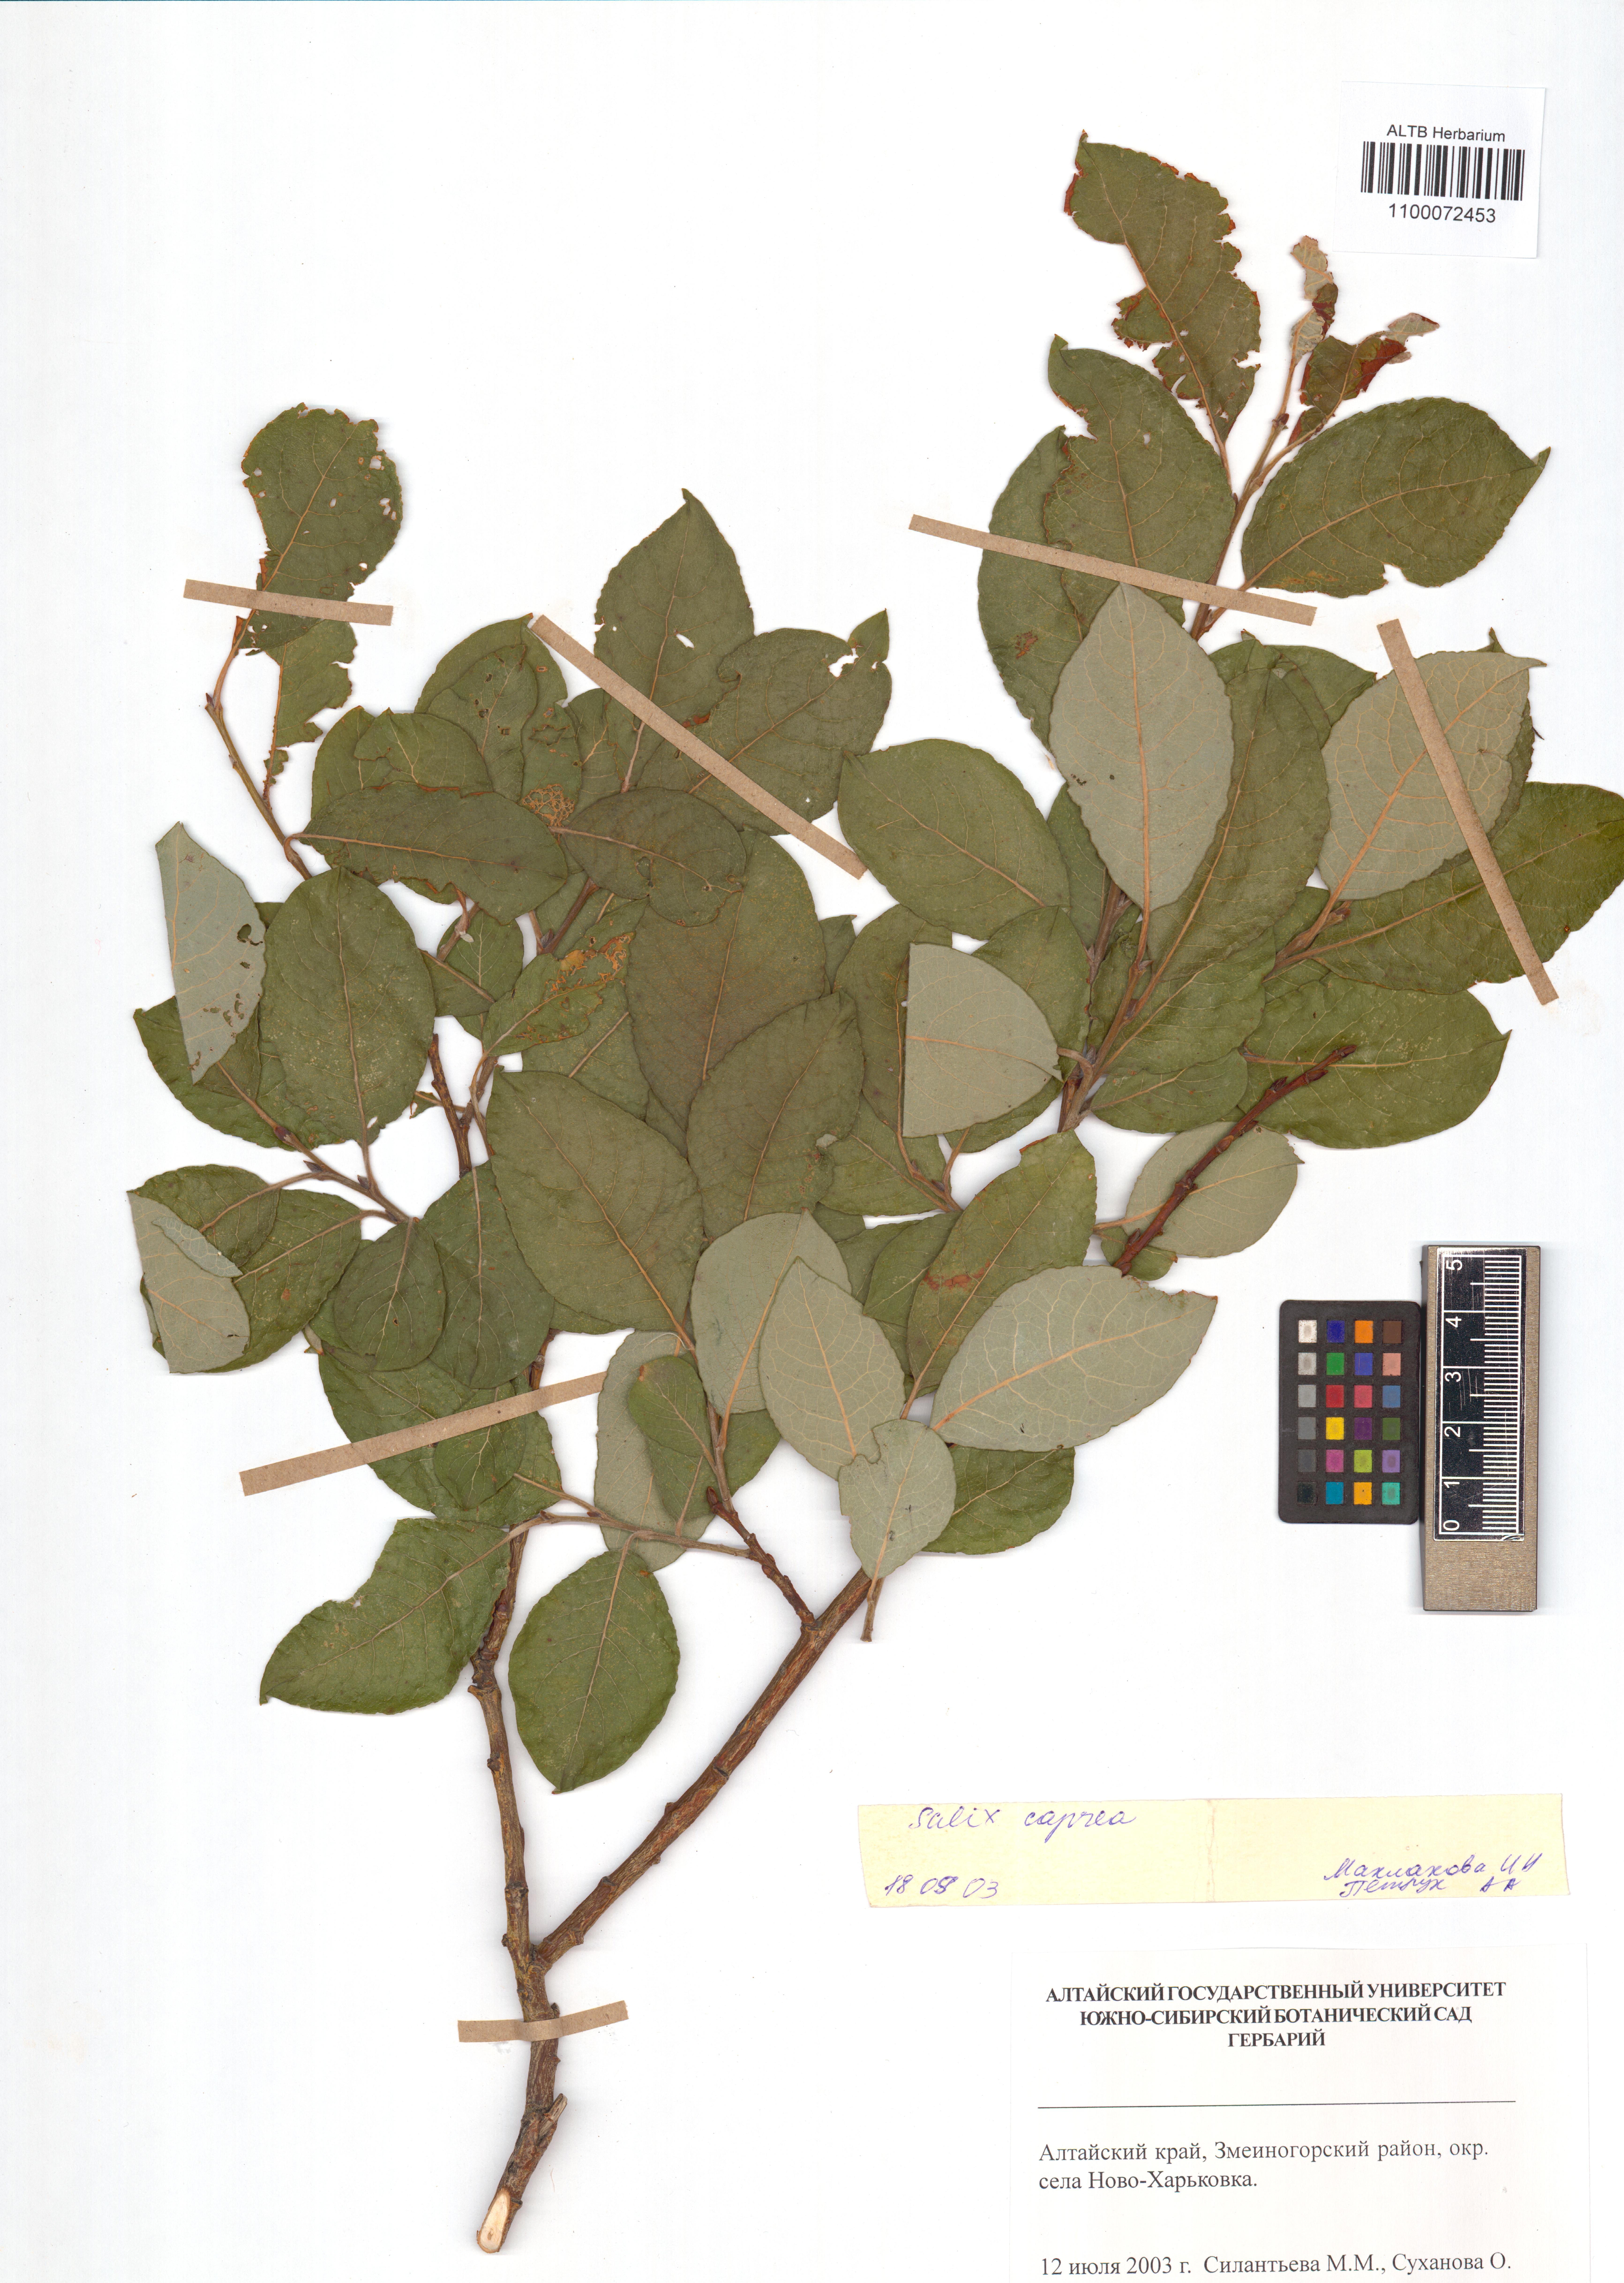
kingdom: Plantae
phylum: Tracheophyta
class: Magnoliopsida
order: Malpighiales
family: Salicaceae
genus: Salix
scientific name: Salix caprea
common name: Goat willow
